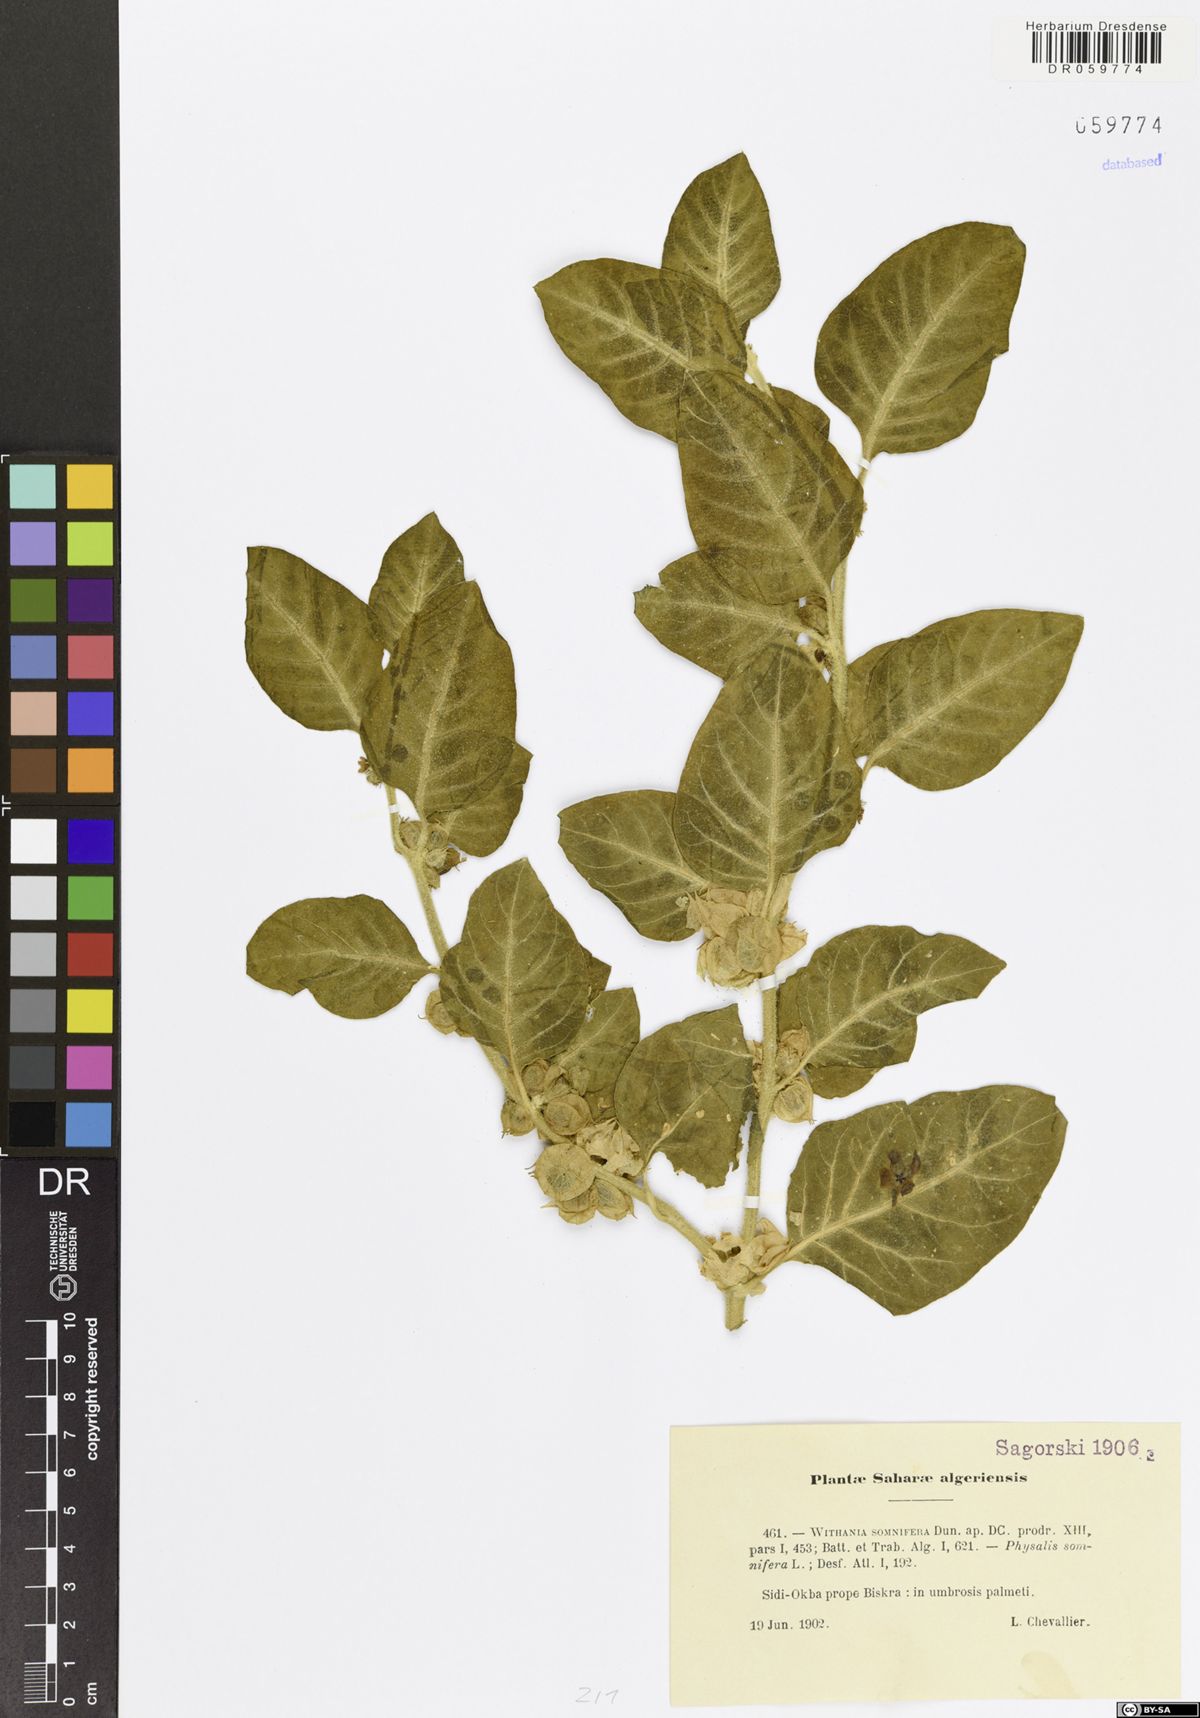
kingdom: Plantae
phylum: Tracheophyta
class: Magnoliopsida
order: Solanales
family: Solanaceae
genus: Withania
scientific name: Withania somnifera
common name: Winter-cherry
